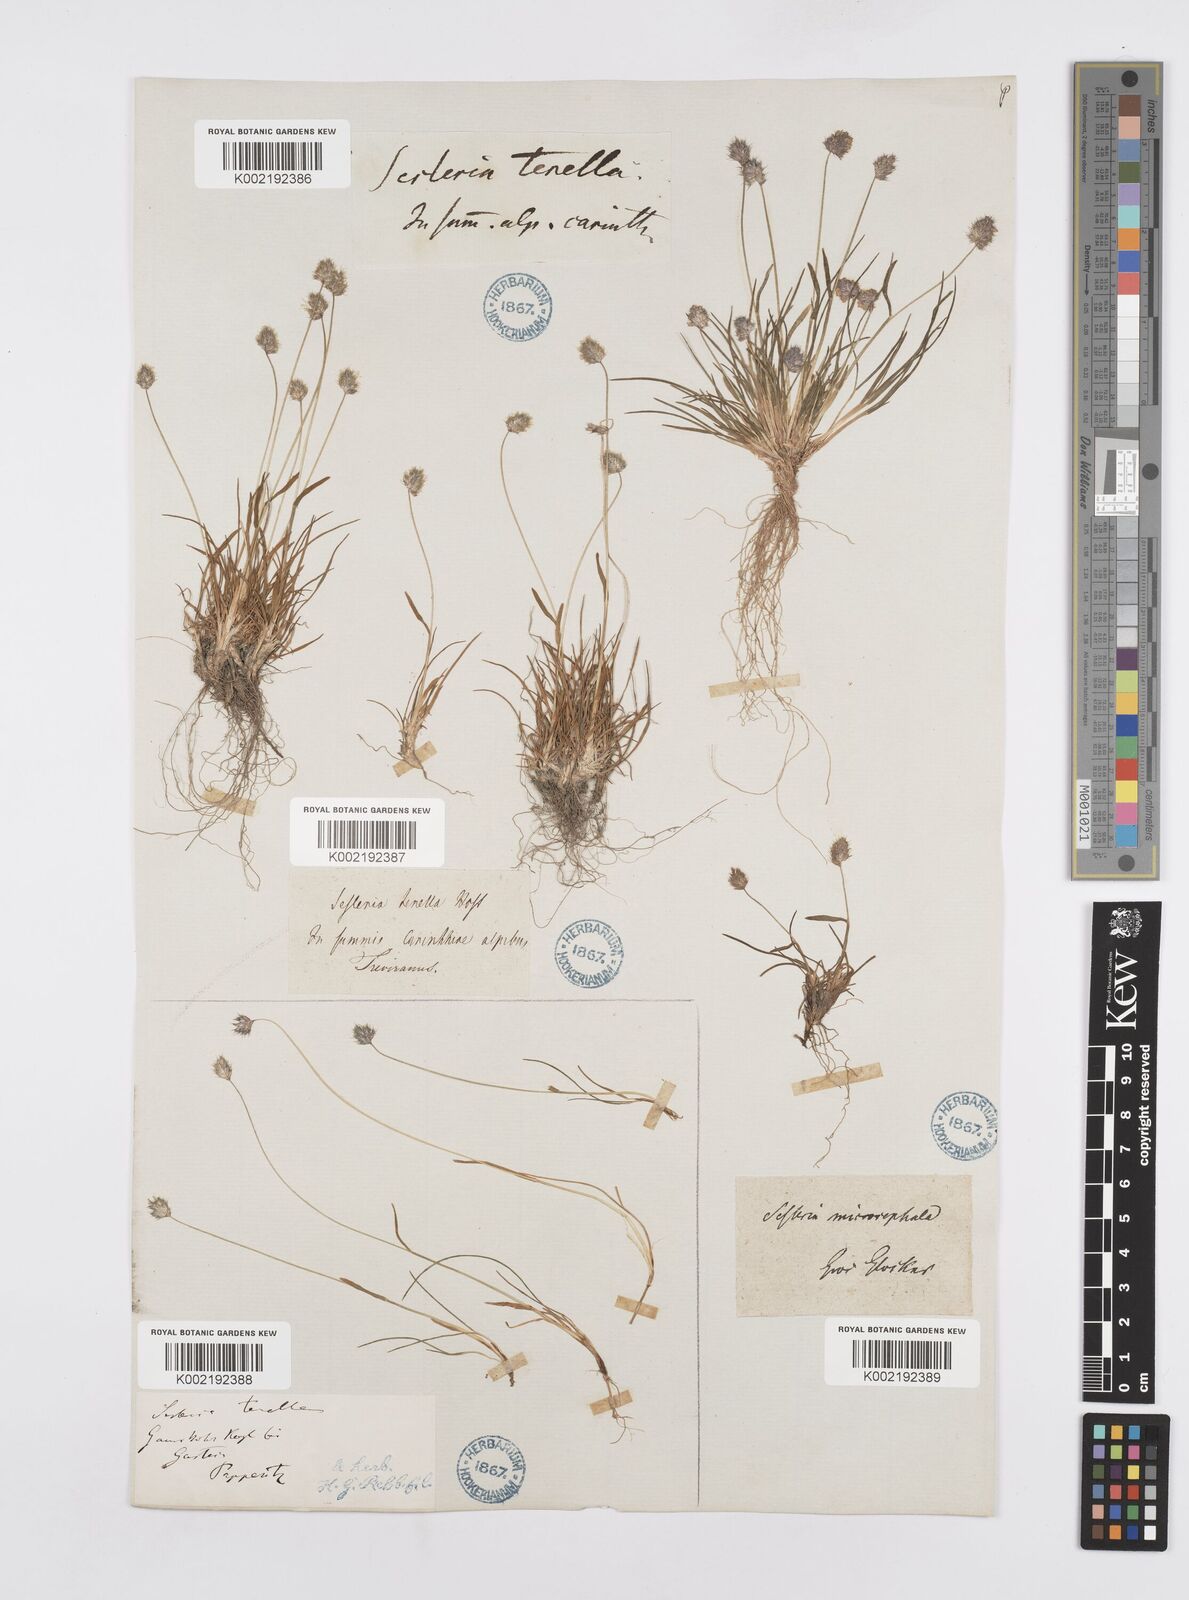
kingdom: Plantae
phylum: Tracheophyta
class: Liliopsida
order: Poales
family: Poaceae
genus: Psilathera
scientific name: Psilathera ovata
